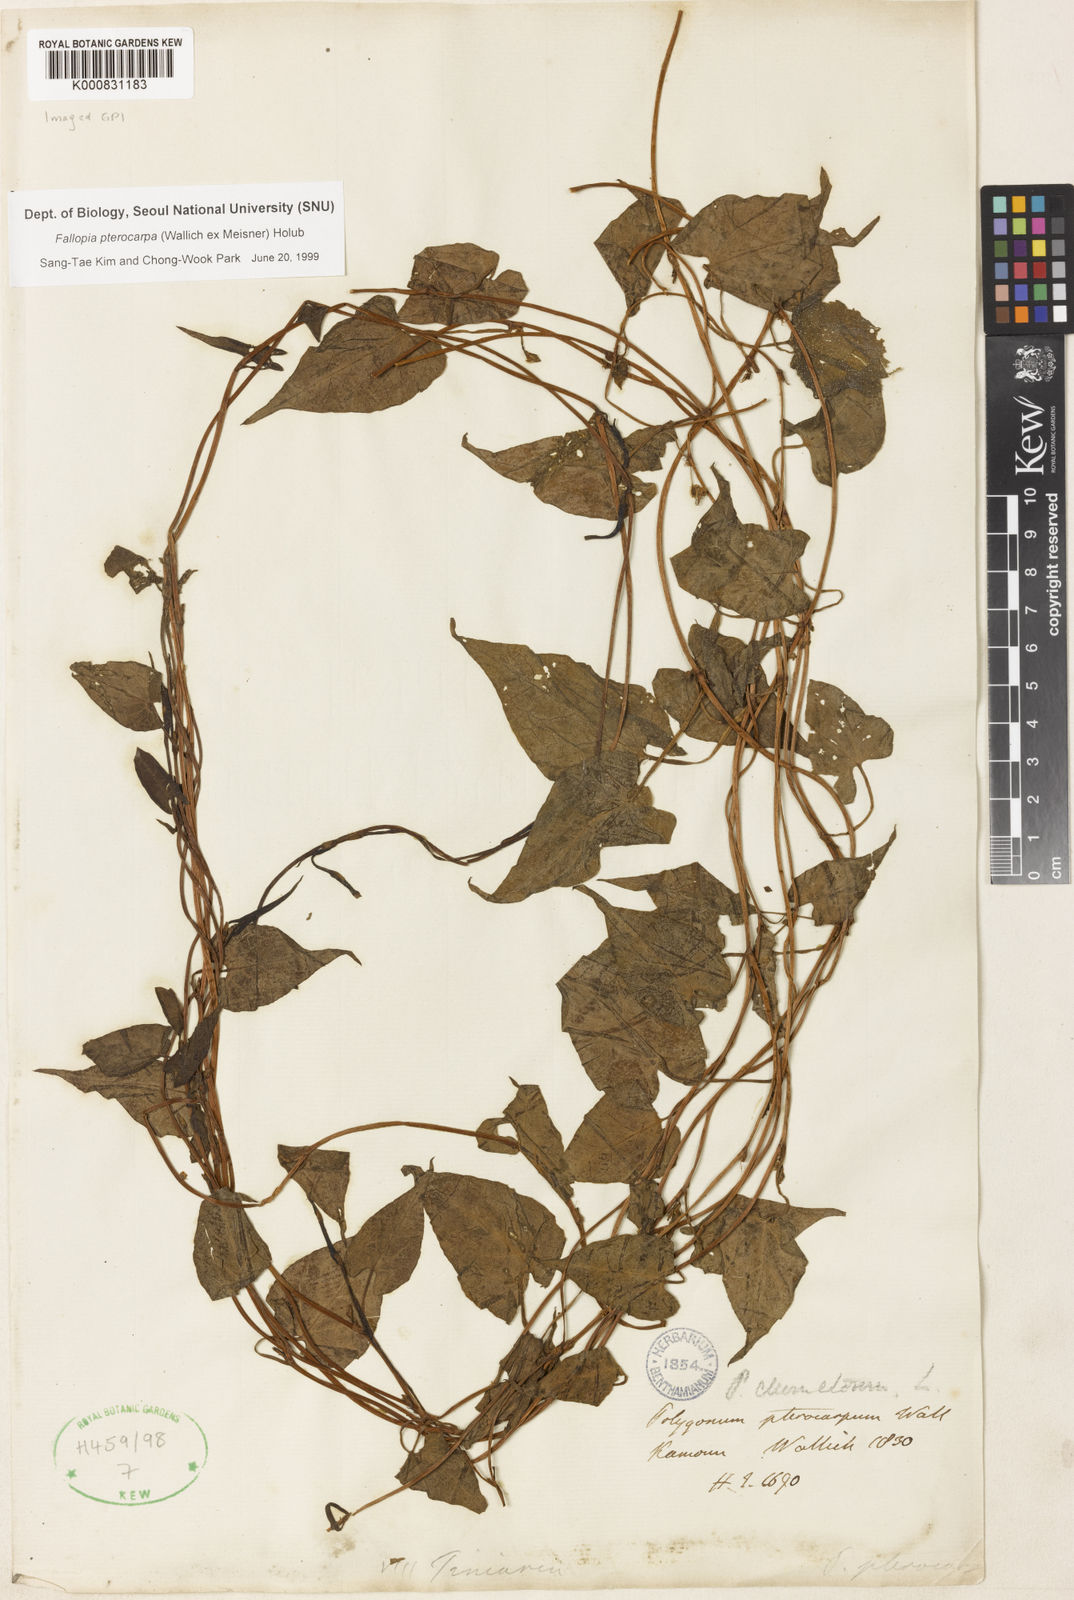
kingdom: Plantae
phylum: Tracheophyta
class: Magnoliopsida
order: Caryophyllales
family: Polygonaceae
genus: Fallopia
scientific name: Fallopia pterocarpa
